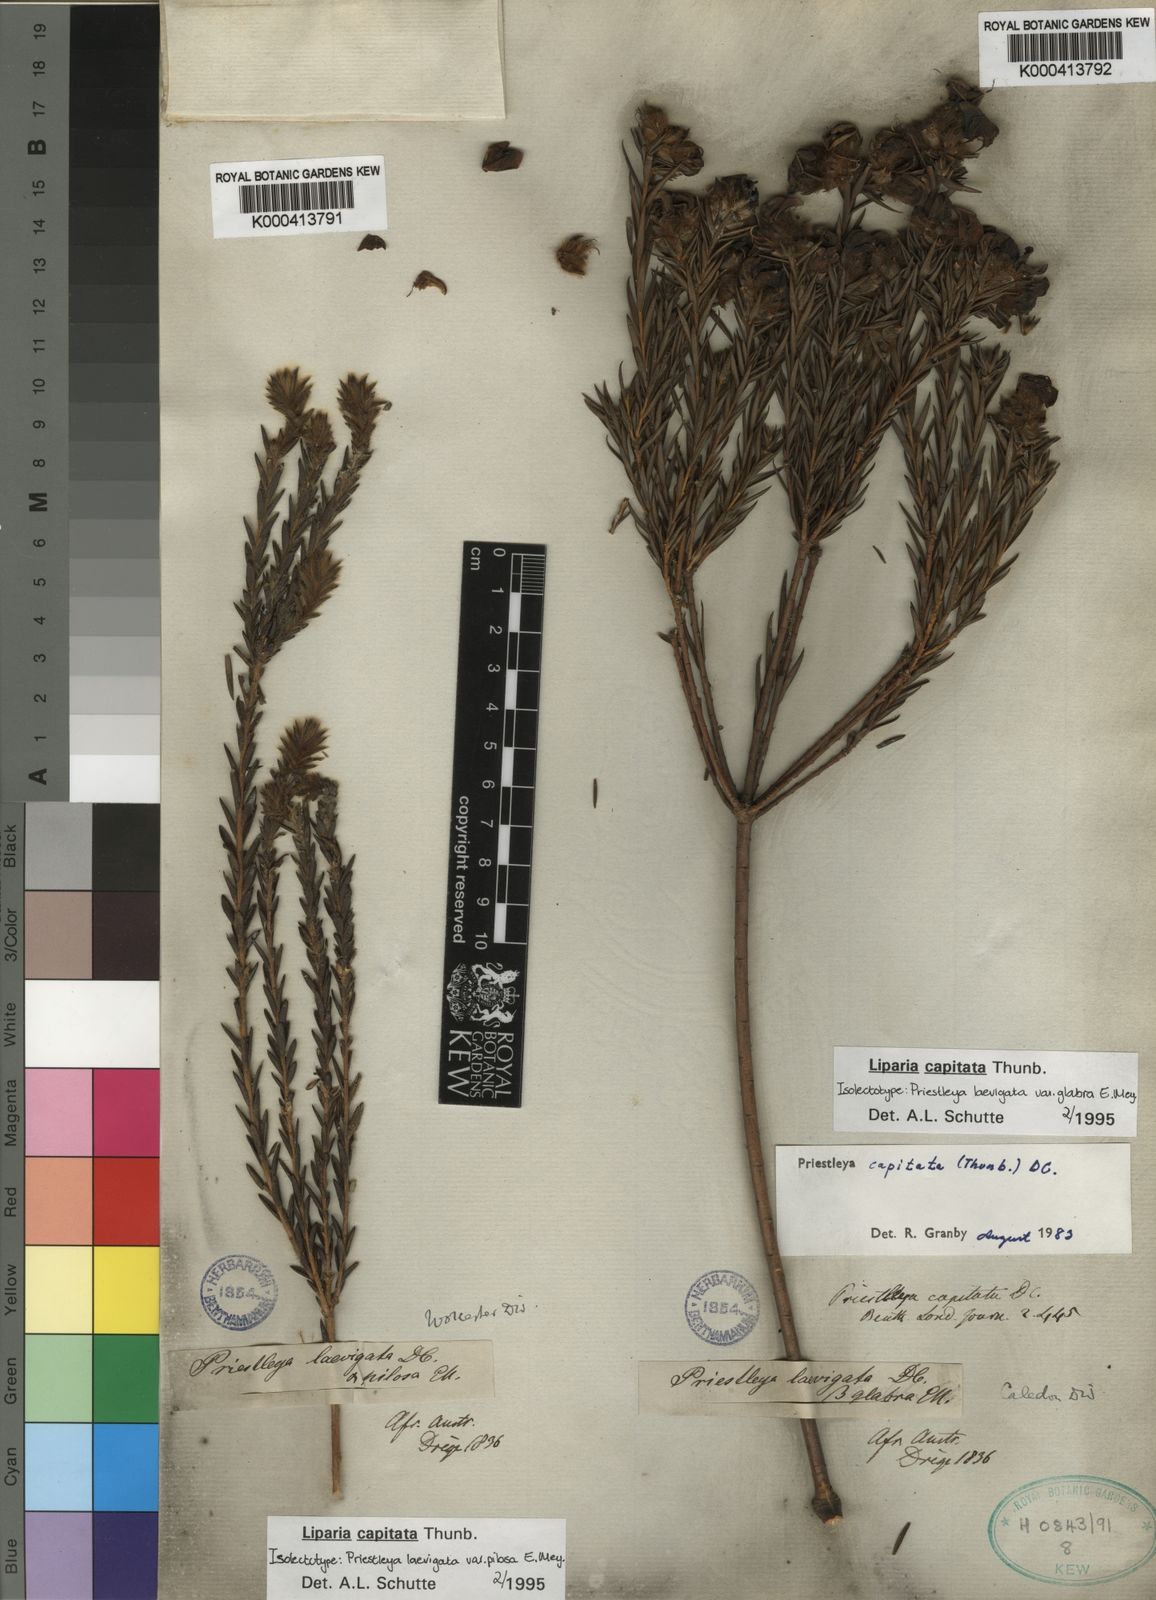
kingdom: Plantae
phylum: Tracheophyta
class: Magnoliopsida
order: Fabales
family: Fabaceae
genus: Liparia
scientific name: Liparia capitata
